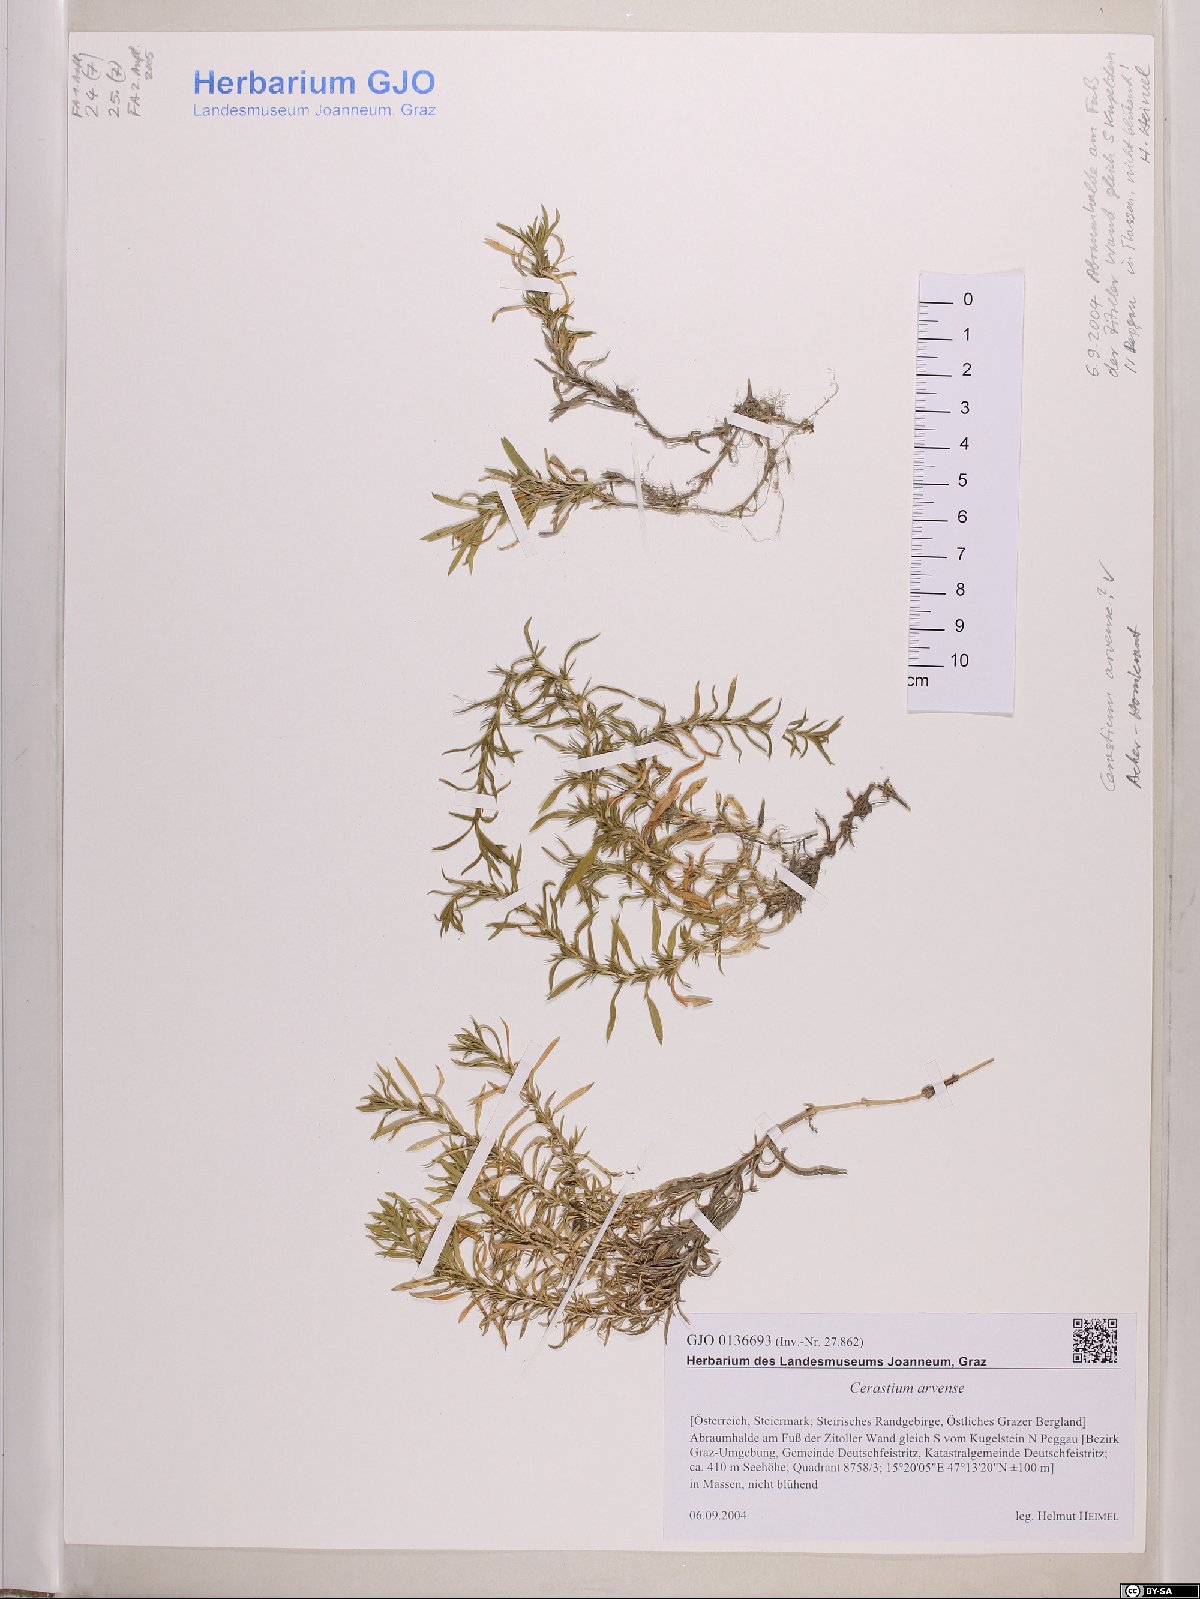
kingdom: Plantae
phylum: Tracheophyta
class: Magnoliopsida
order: Caryophyllales
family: Caryophyllaceae
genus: Cerastium
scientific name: Cerastium arvense
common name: Field mouse-ear
